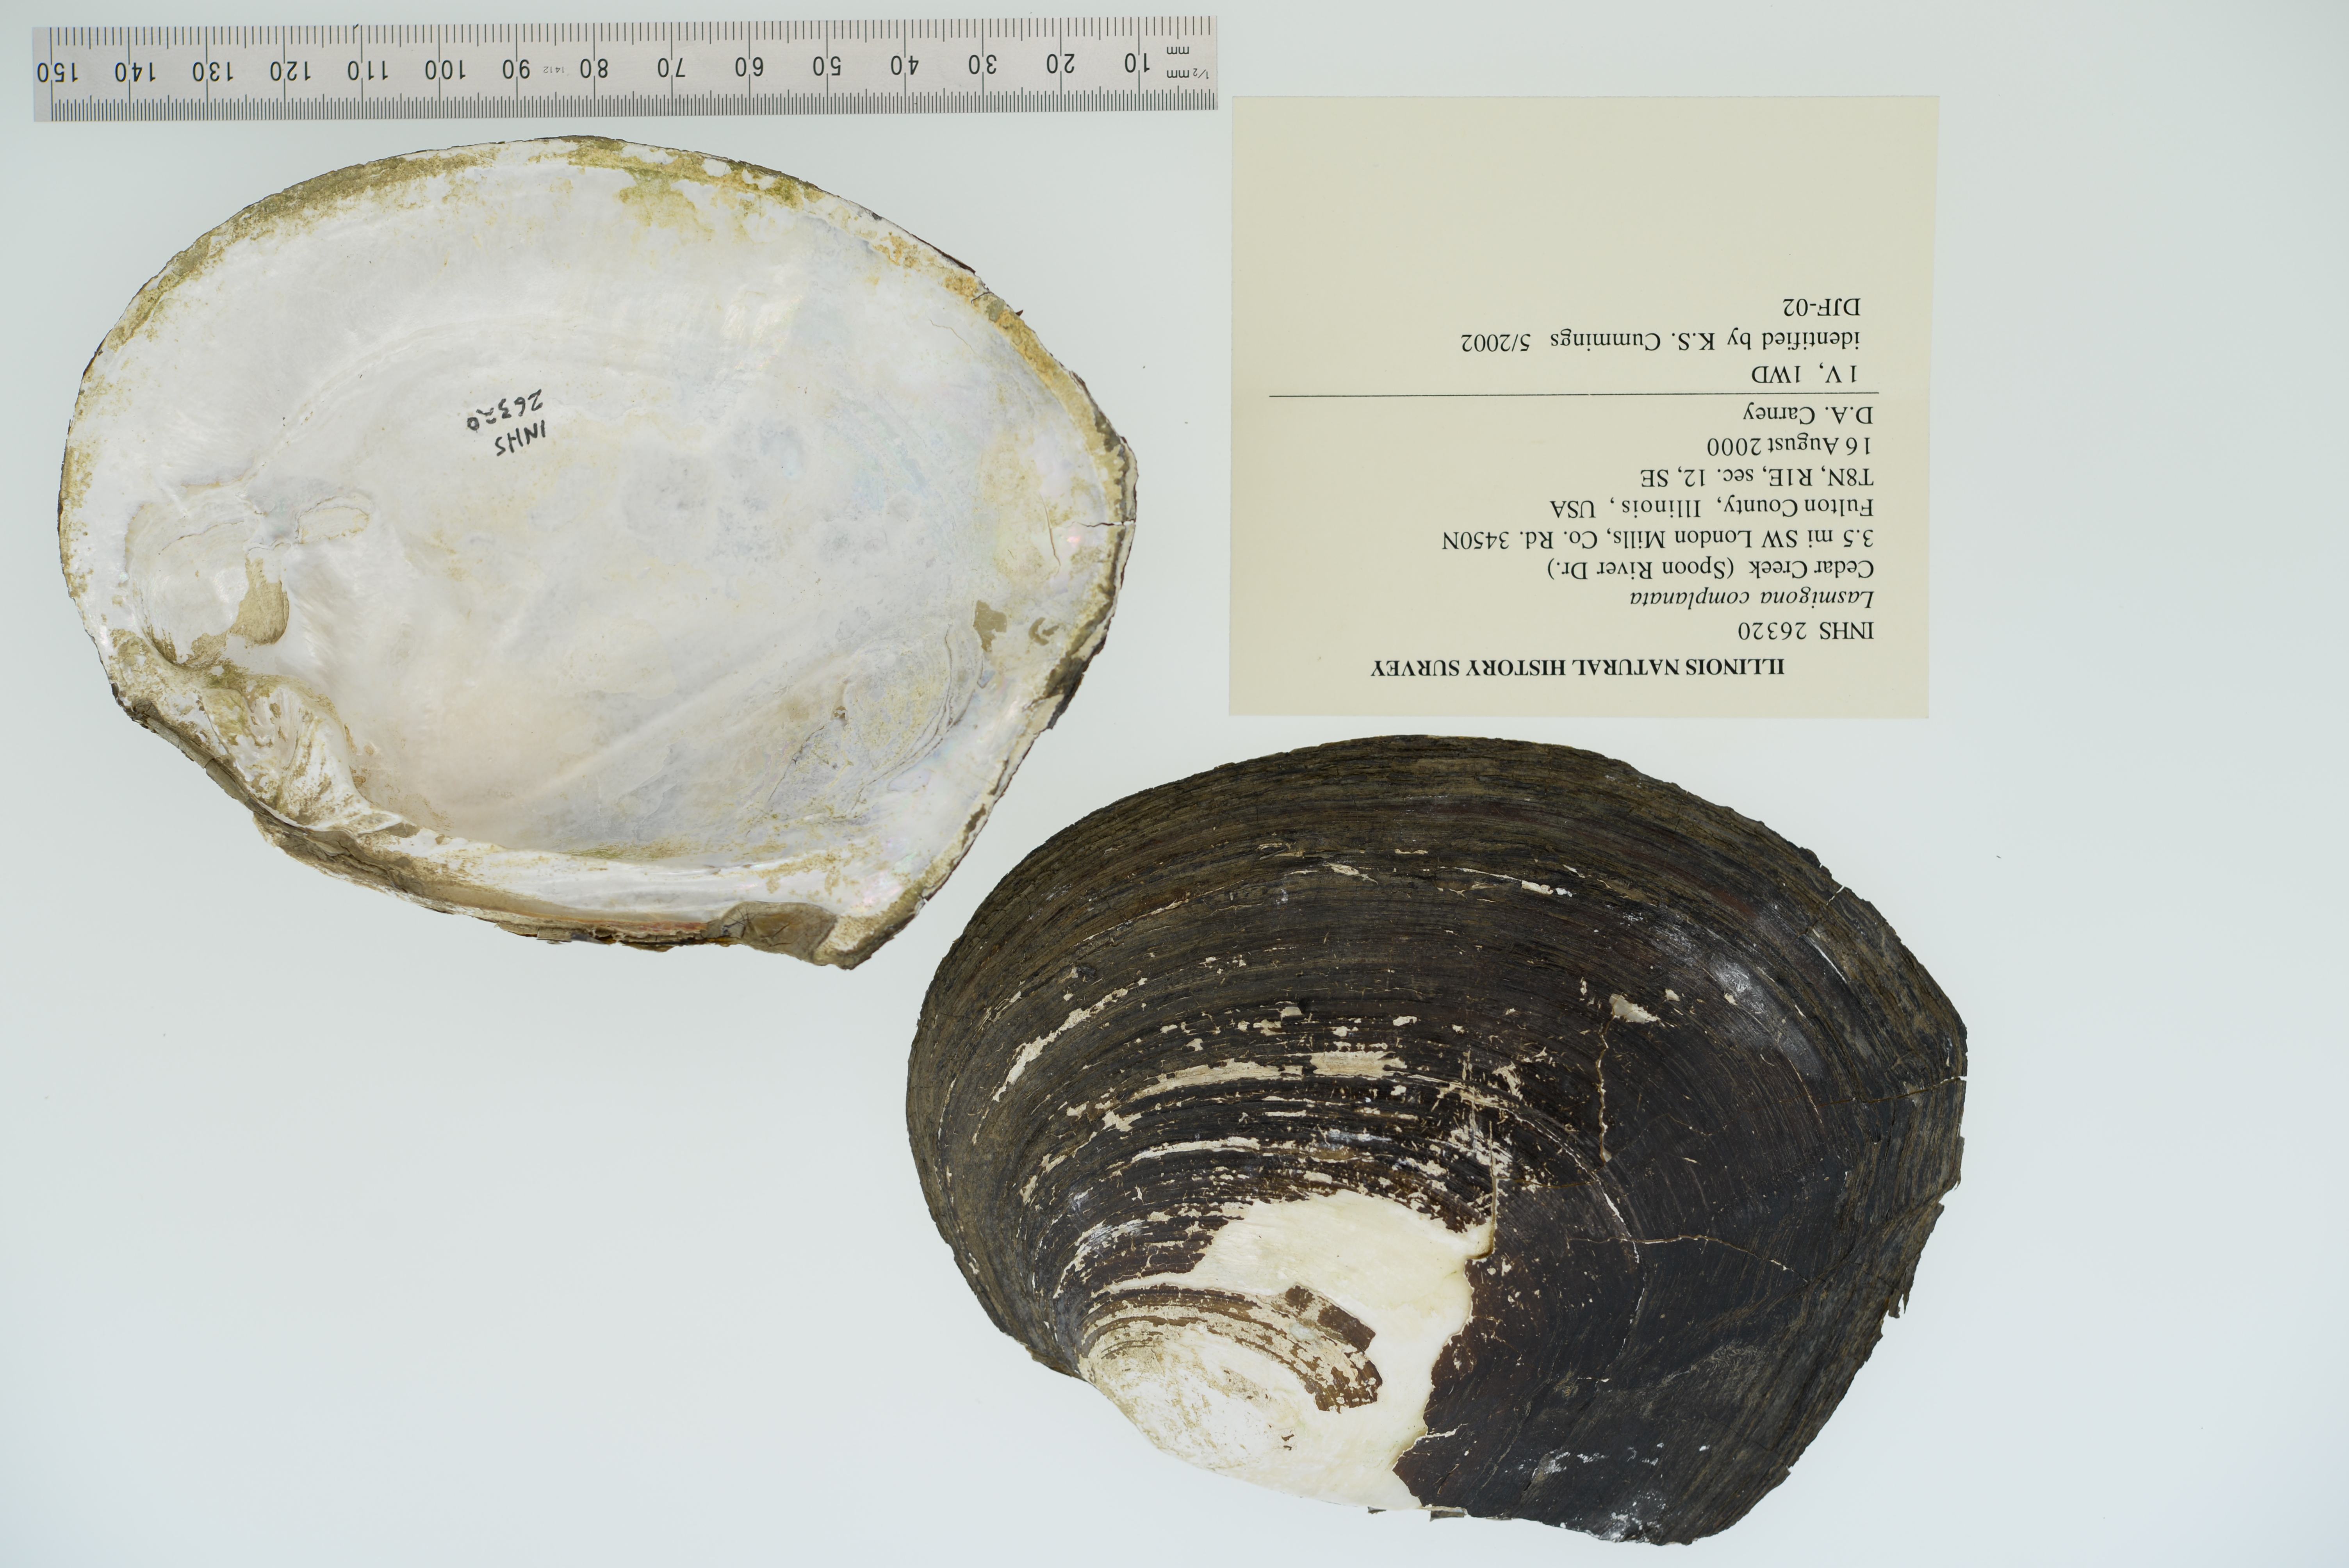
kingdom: Animalia
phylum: Mollusca
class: Bivalvia
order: Unionida
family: Unionidae
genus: Lasmigona
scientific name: Lasmigona complanata
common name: White heelsplitter
